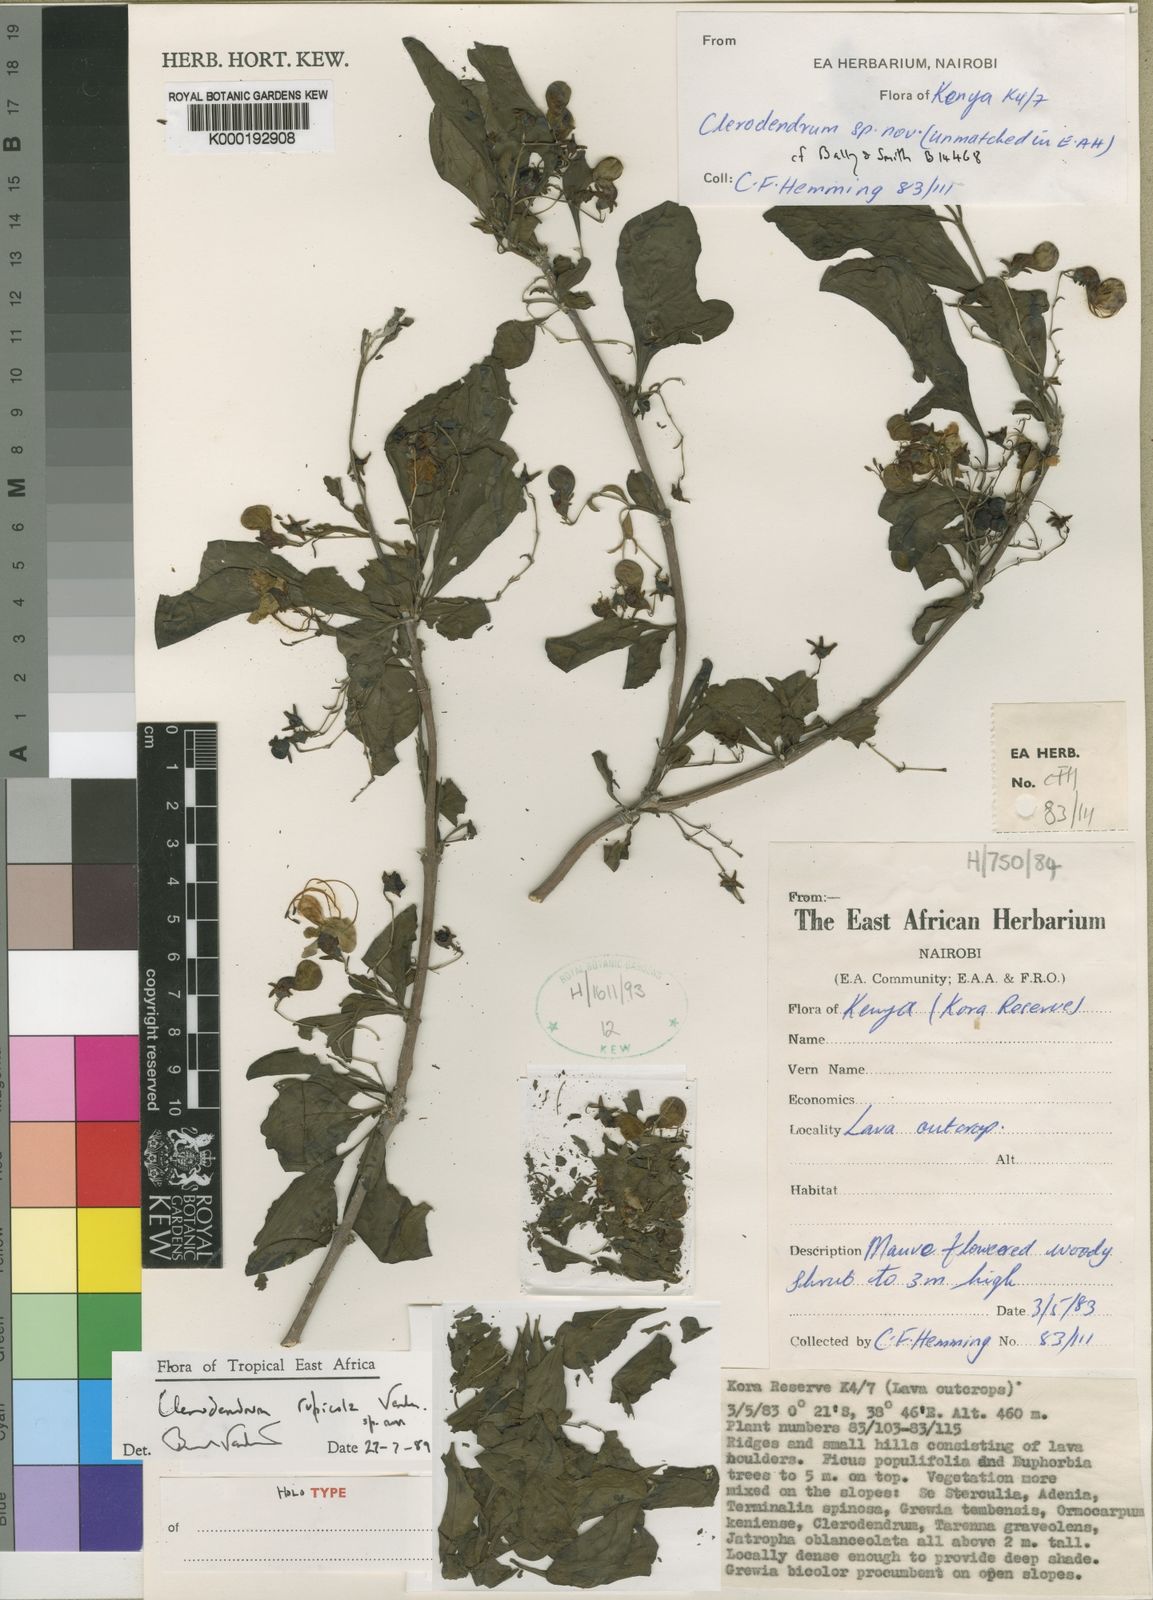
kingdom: Plantae
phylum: Tracheophyta
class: Magnoliopsida
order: Lamiales
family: Lamiaceae
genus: Rotheca
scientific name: Rotheca rupicola
